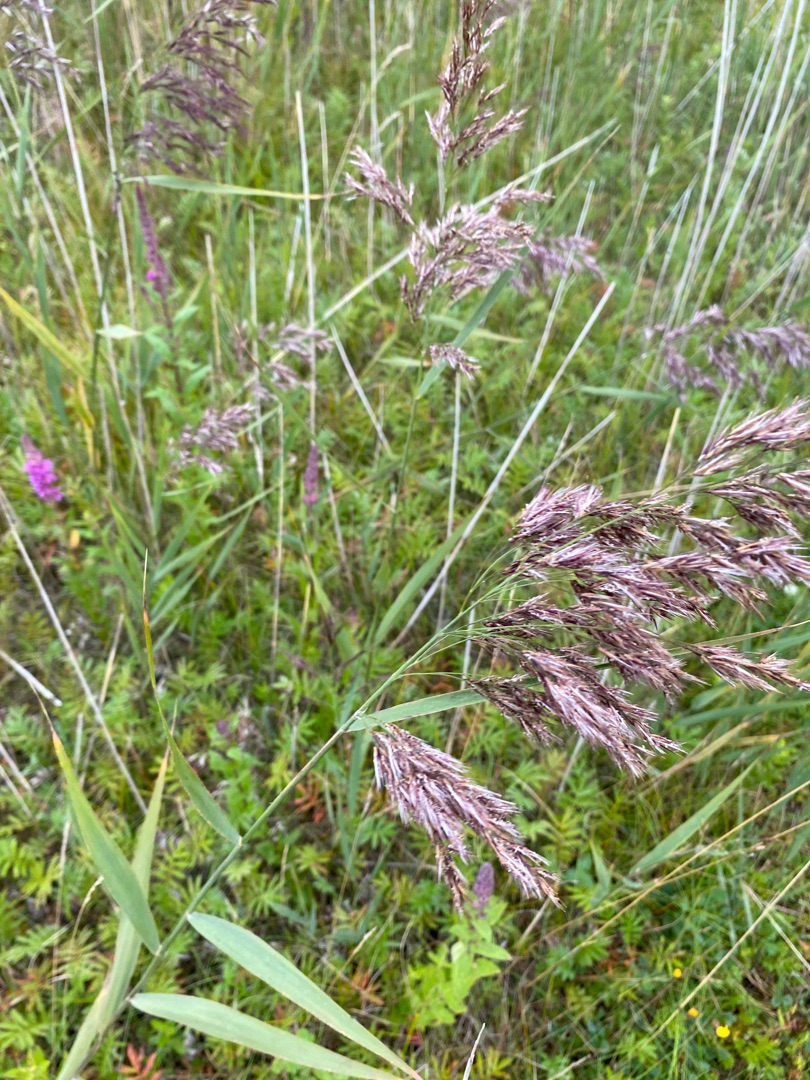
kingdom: Plantae
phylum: Tracheophyta
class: Liliopsida
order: Poales
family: Poaceae
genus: Phragmites
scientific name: Phragmites australis
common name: Tagrør
